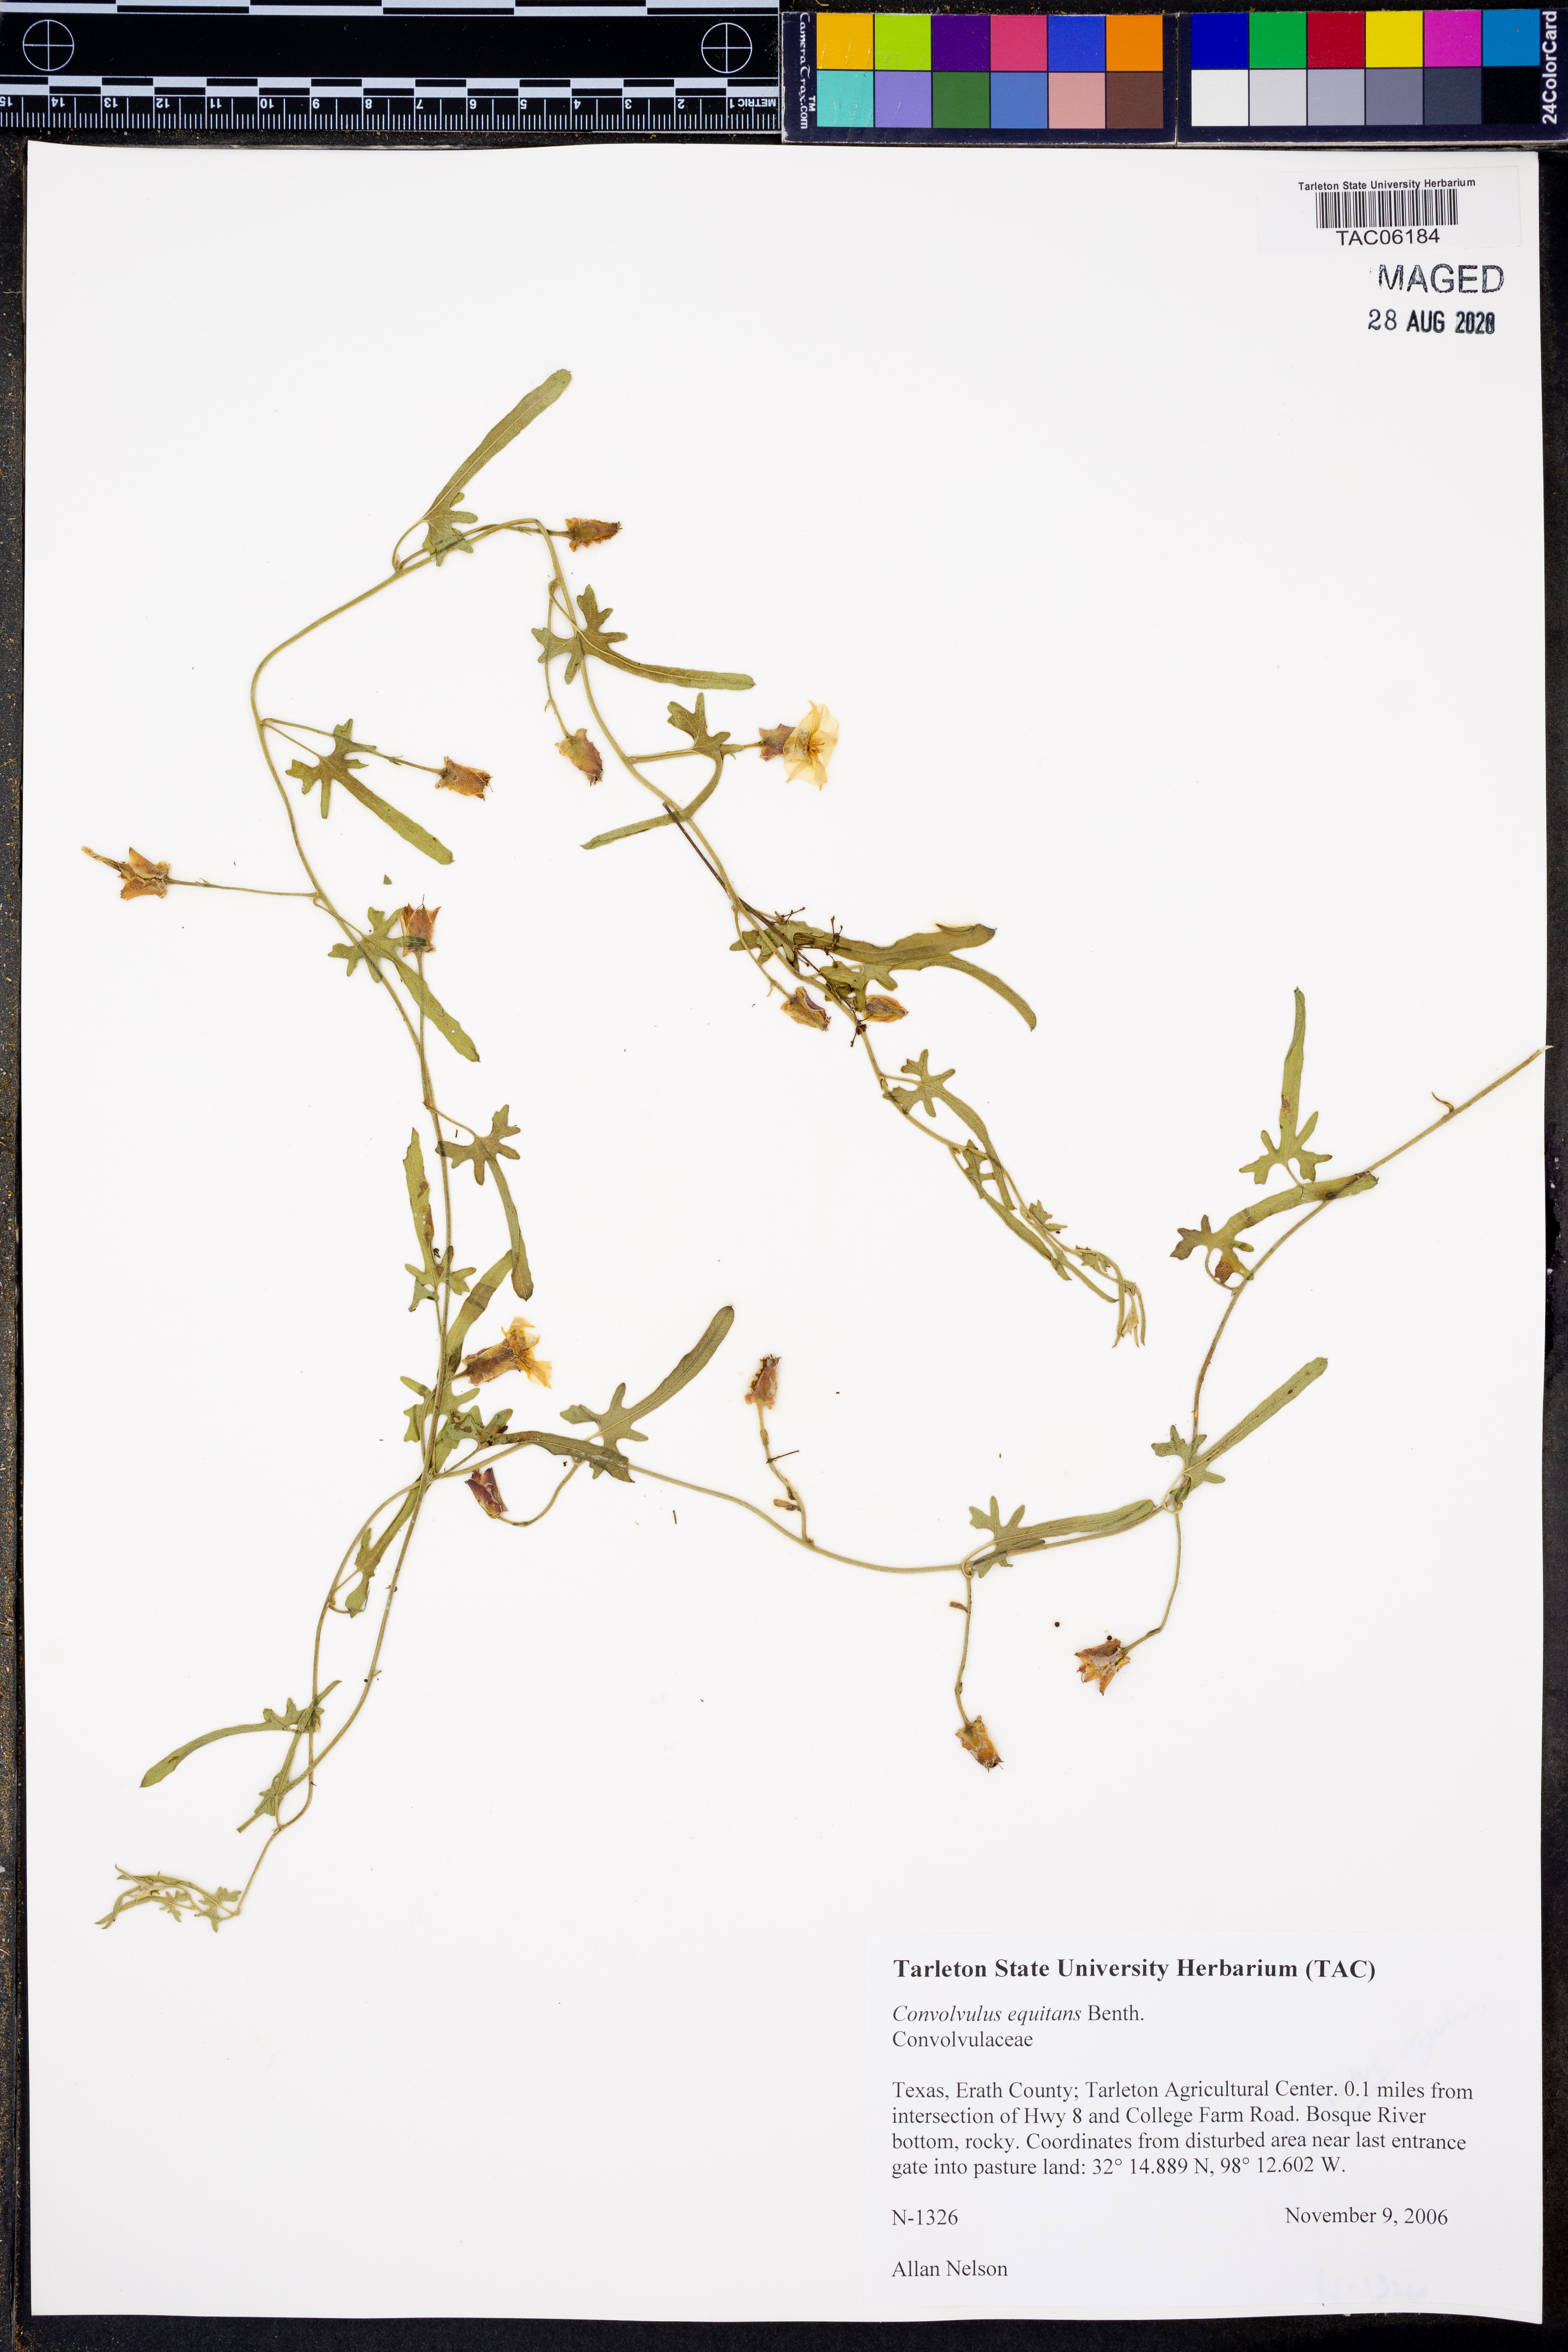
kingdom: Plantae
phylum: Tracheophyta
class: Magnoliopsida
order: Solanales
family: Convolvulaceae
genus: Convolvulus
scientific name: Convolvulus equitans
